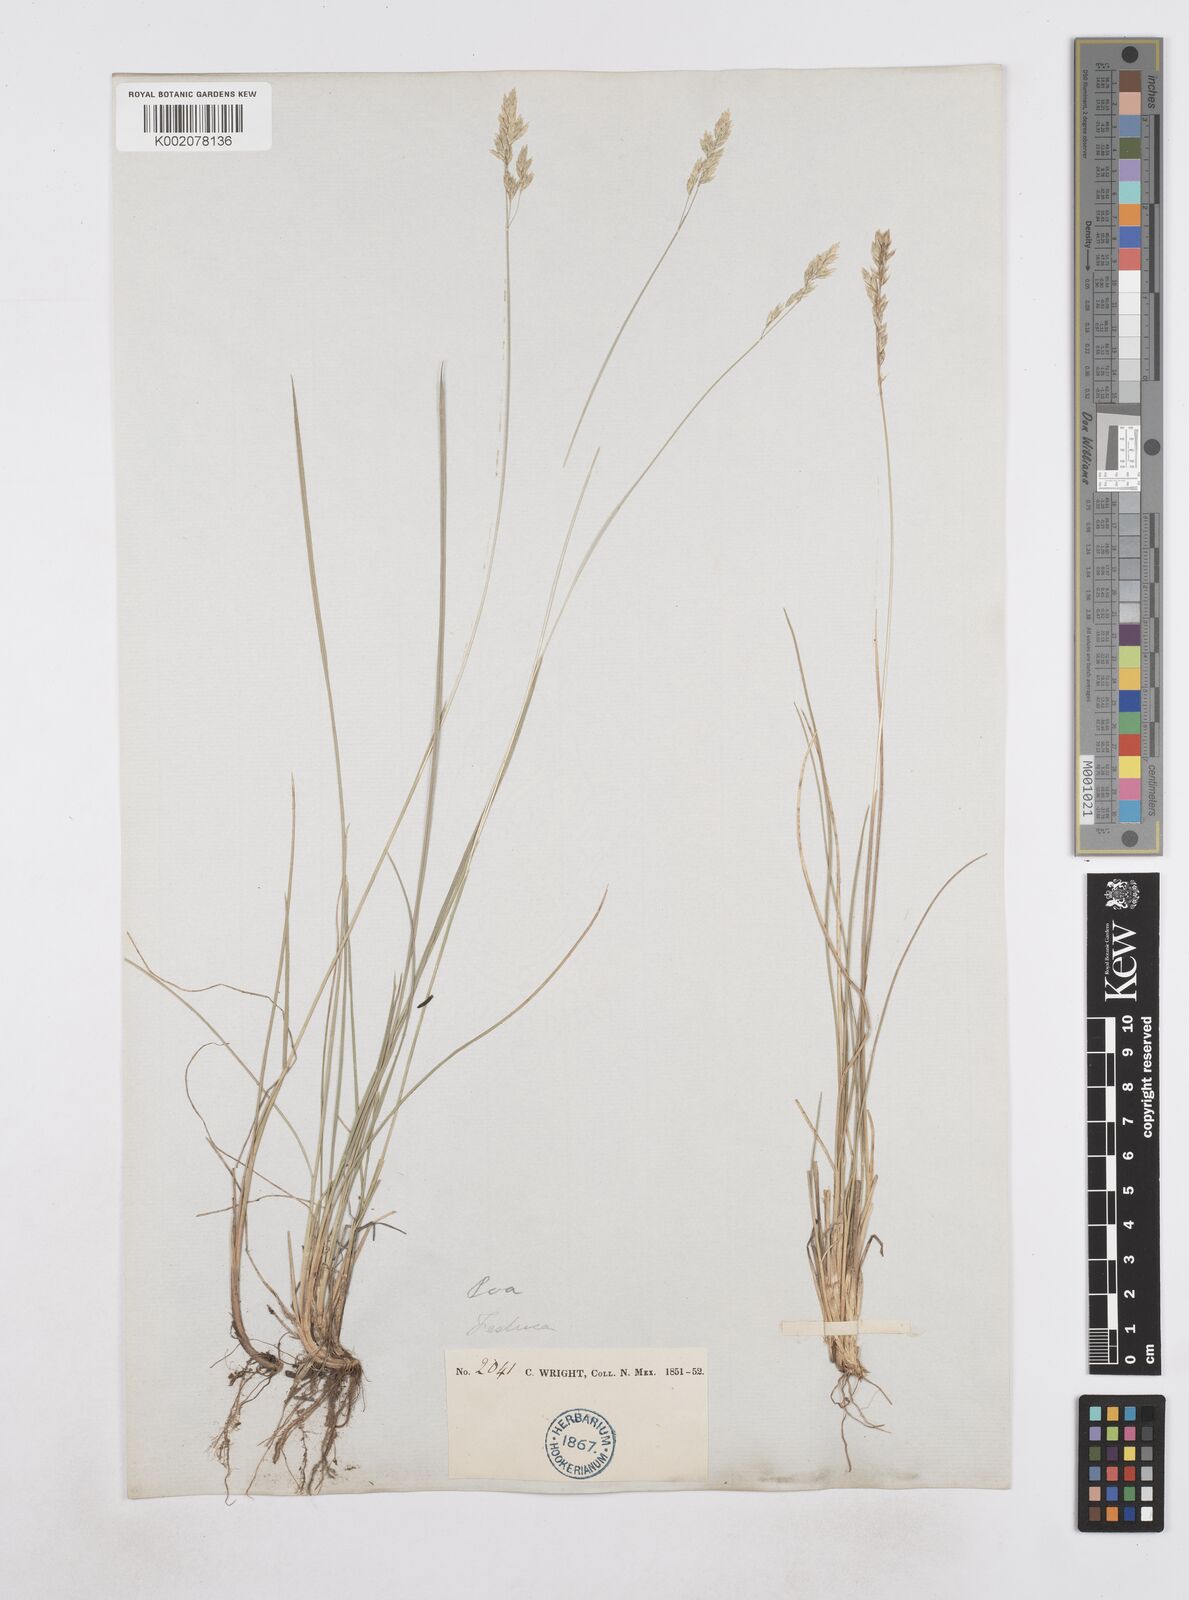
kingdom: Plantae
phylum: Tracheophyta
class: Liliopsida
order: Poales
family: Poaceae
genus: Poa
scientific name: Poa
